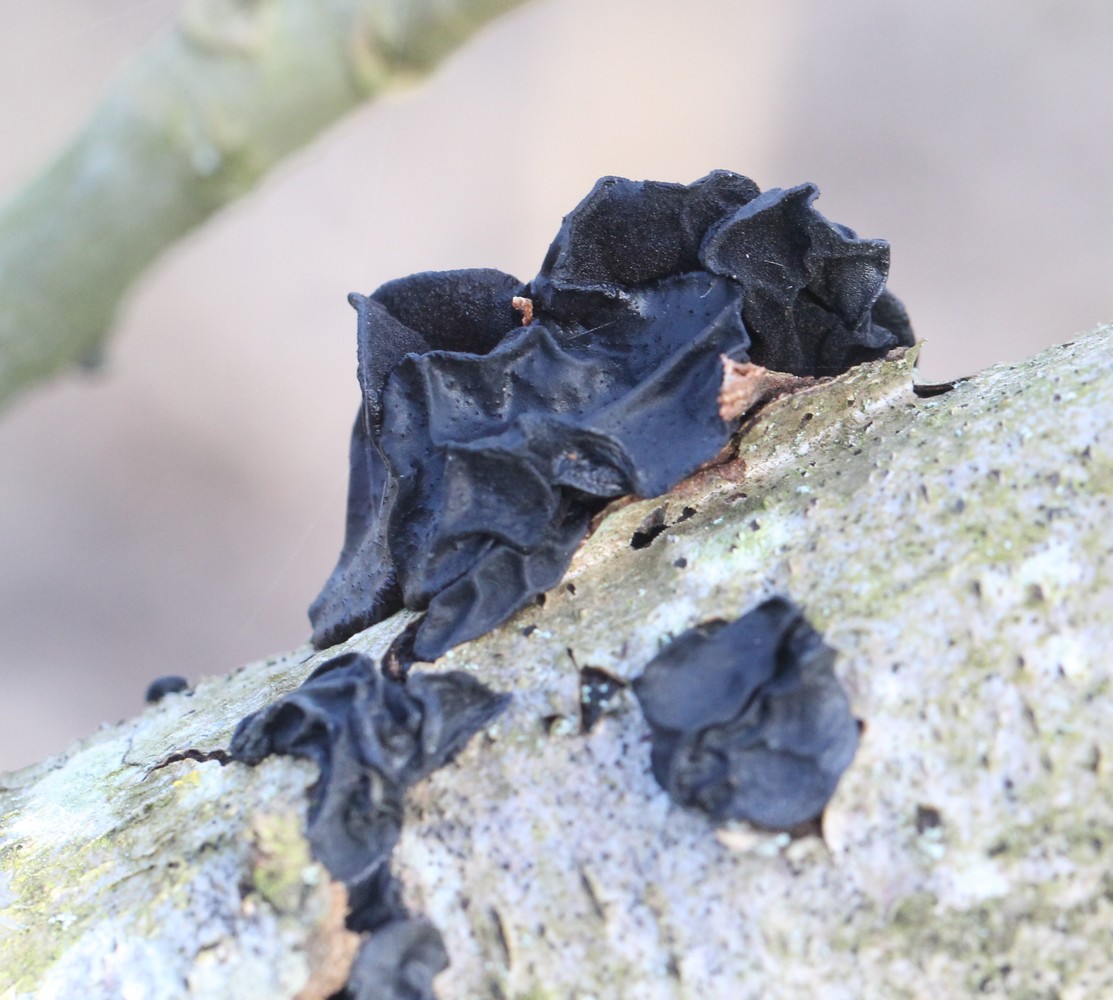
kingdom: Fungi
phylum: Basidiomycota
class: Agaricomycetes
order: Auriculariales
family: Auriculariaceae
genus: Exidia
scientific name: Exidia glandulosa
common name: ege-bævretop
